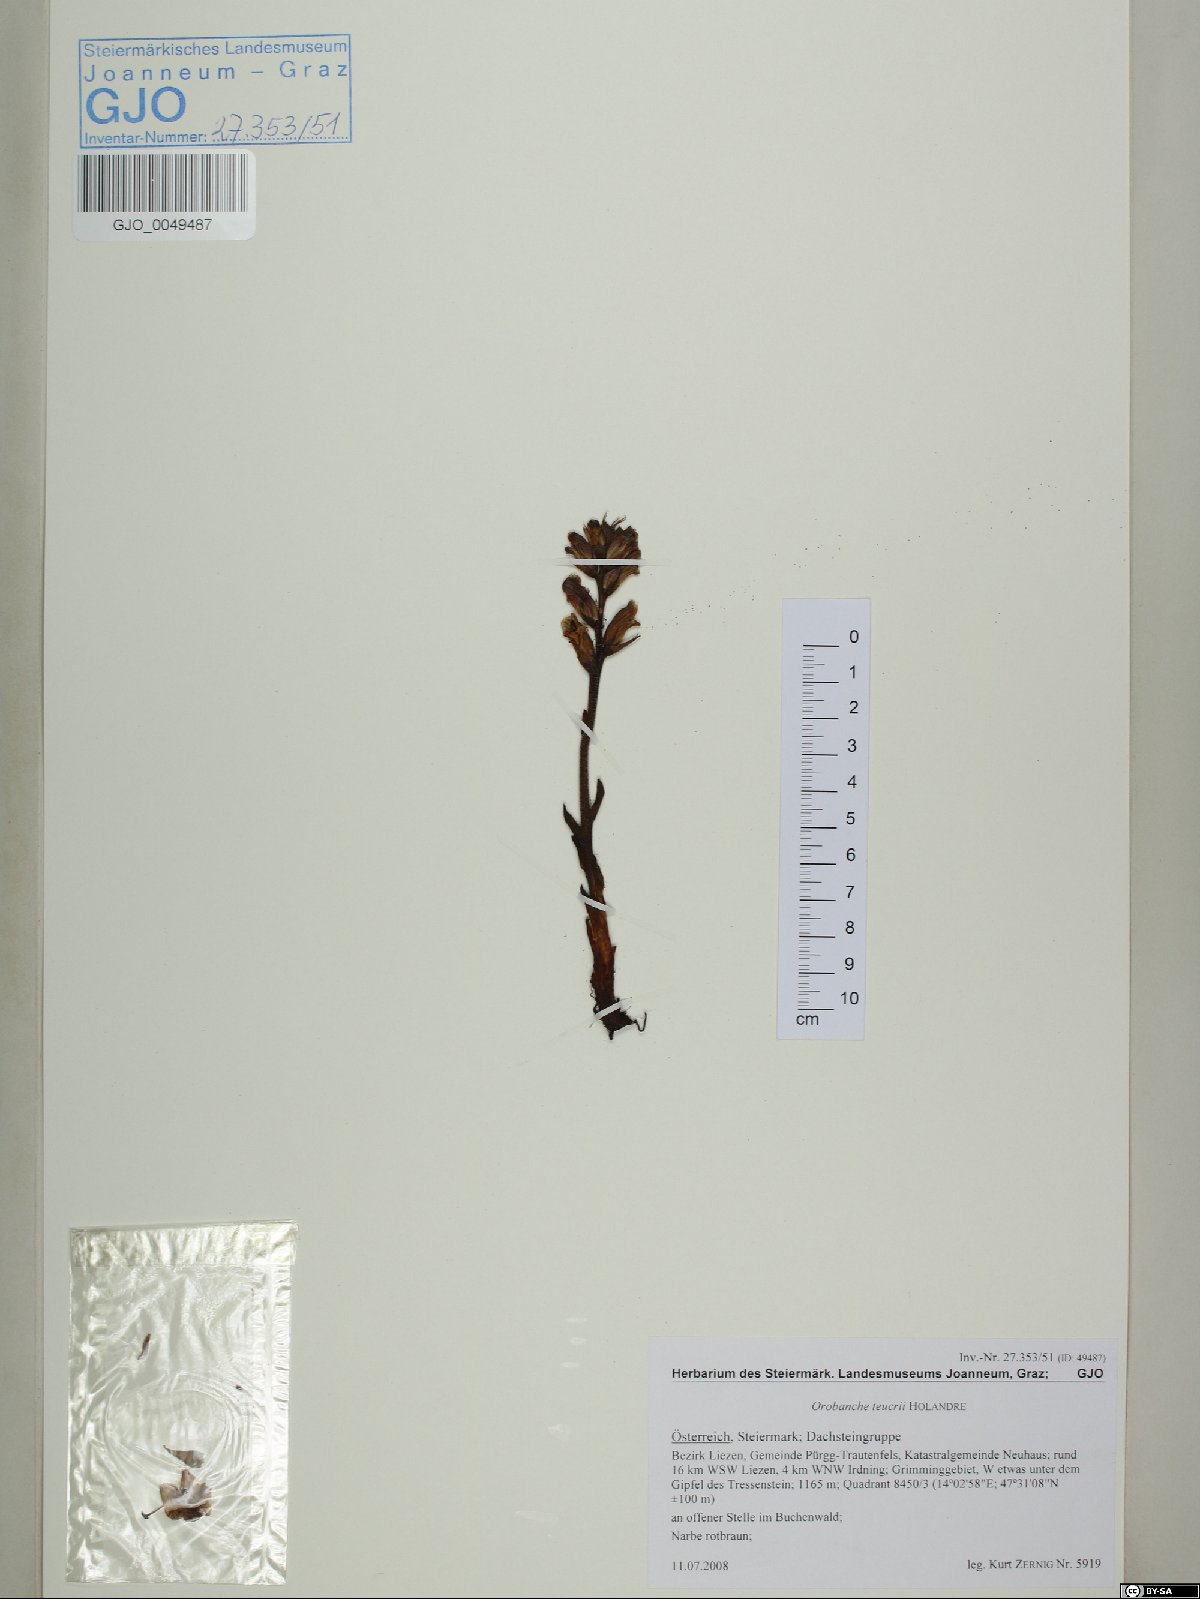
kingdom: Plantae
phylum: Tracheophyta
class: Magnoliopsida
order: Lamiales
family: Orobanchaceae
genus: Orobanche
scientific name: Orobanche teucrii
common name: Germander broomrape
